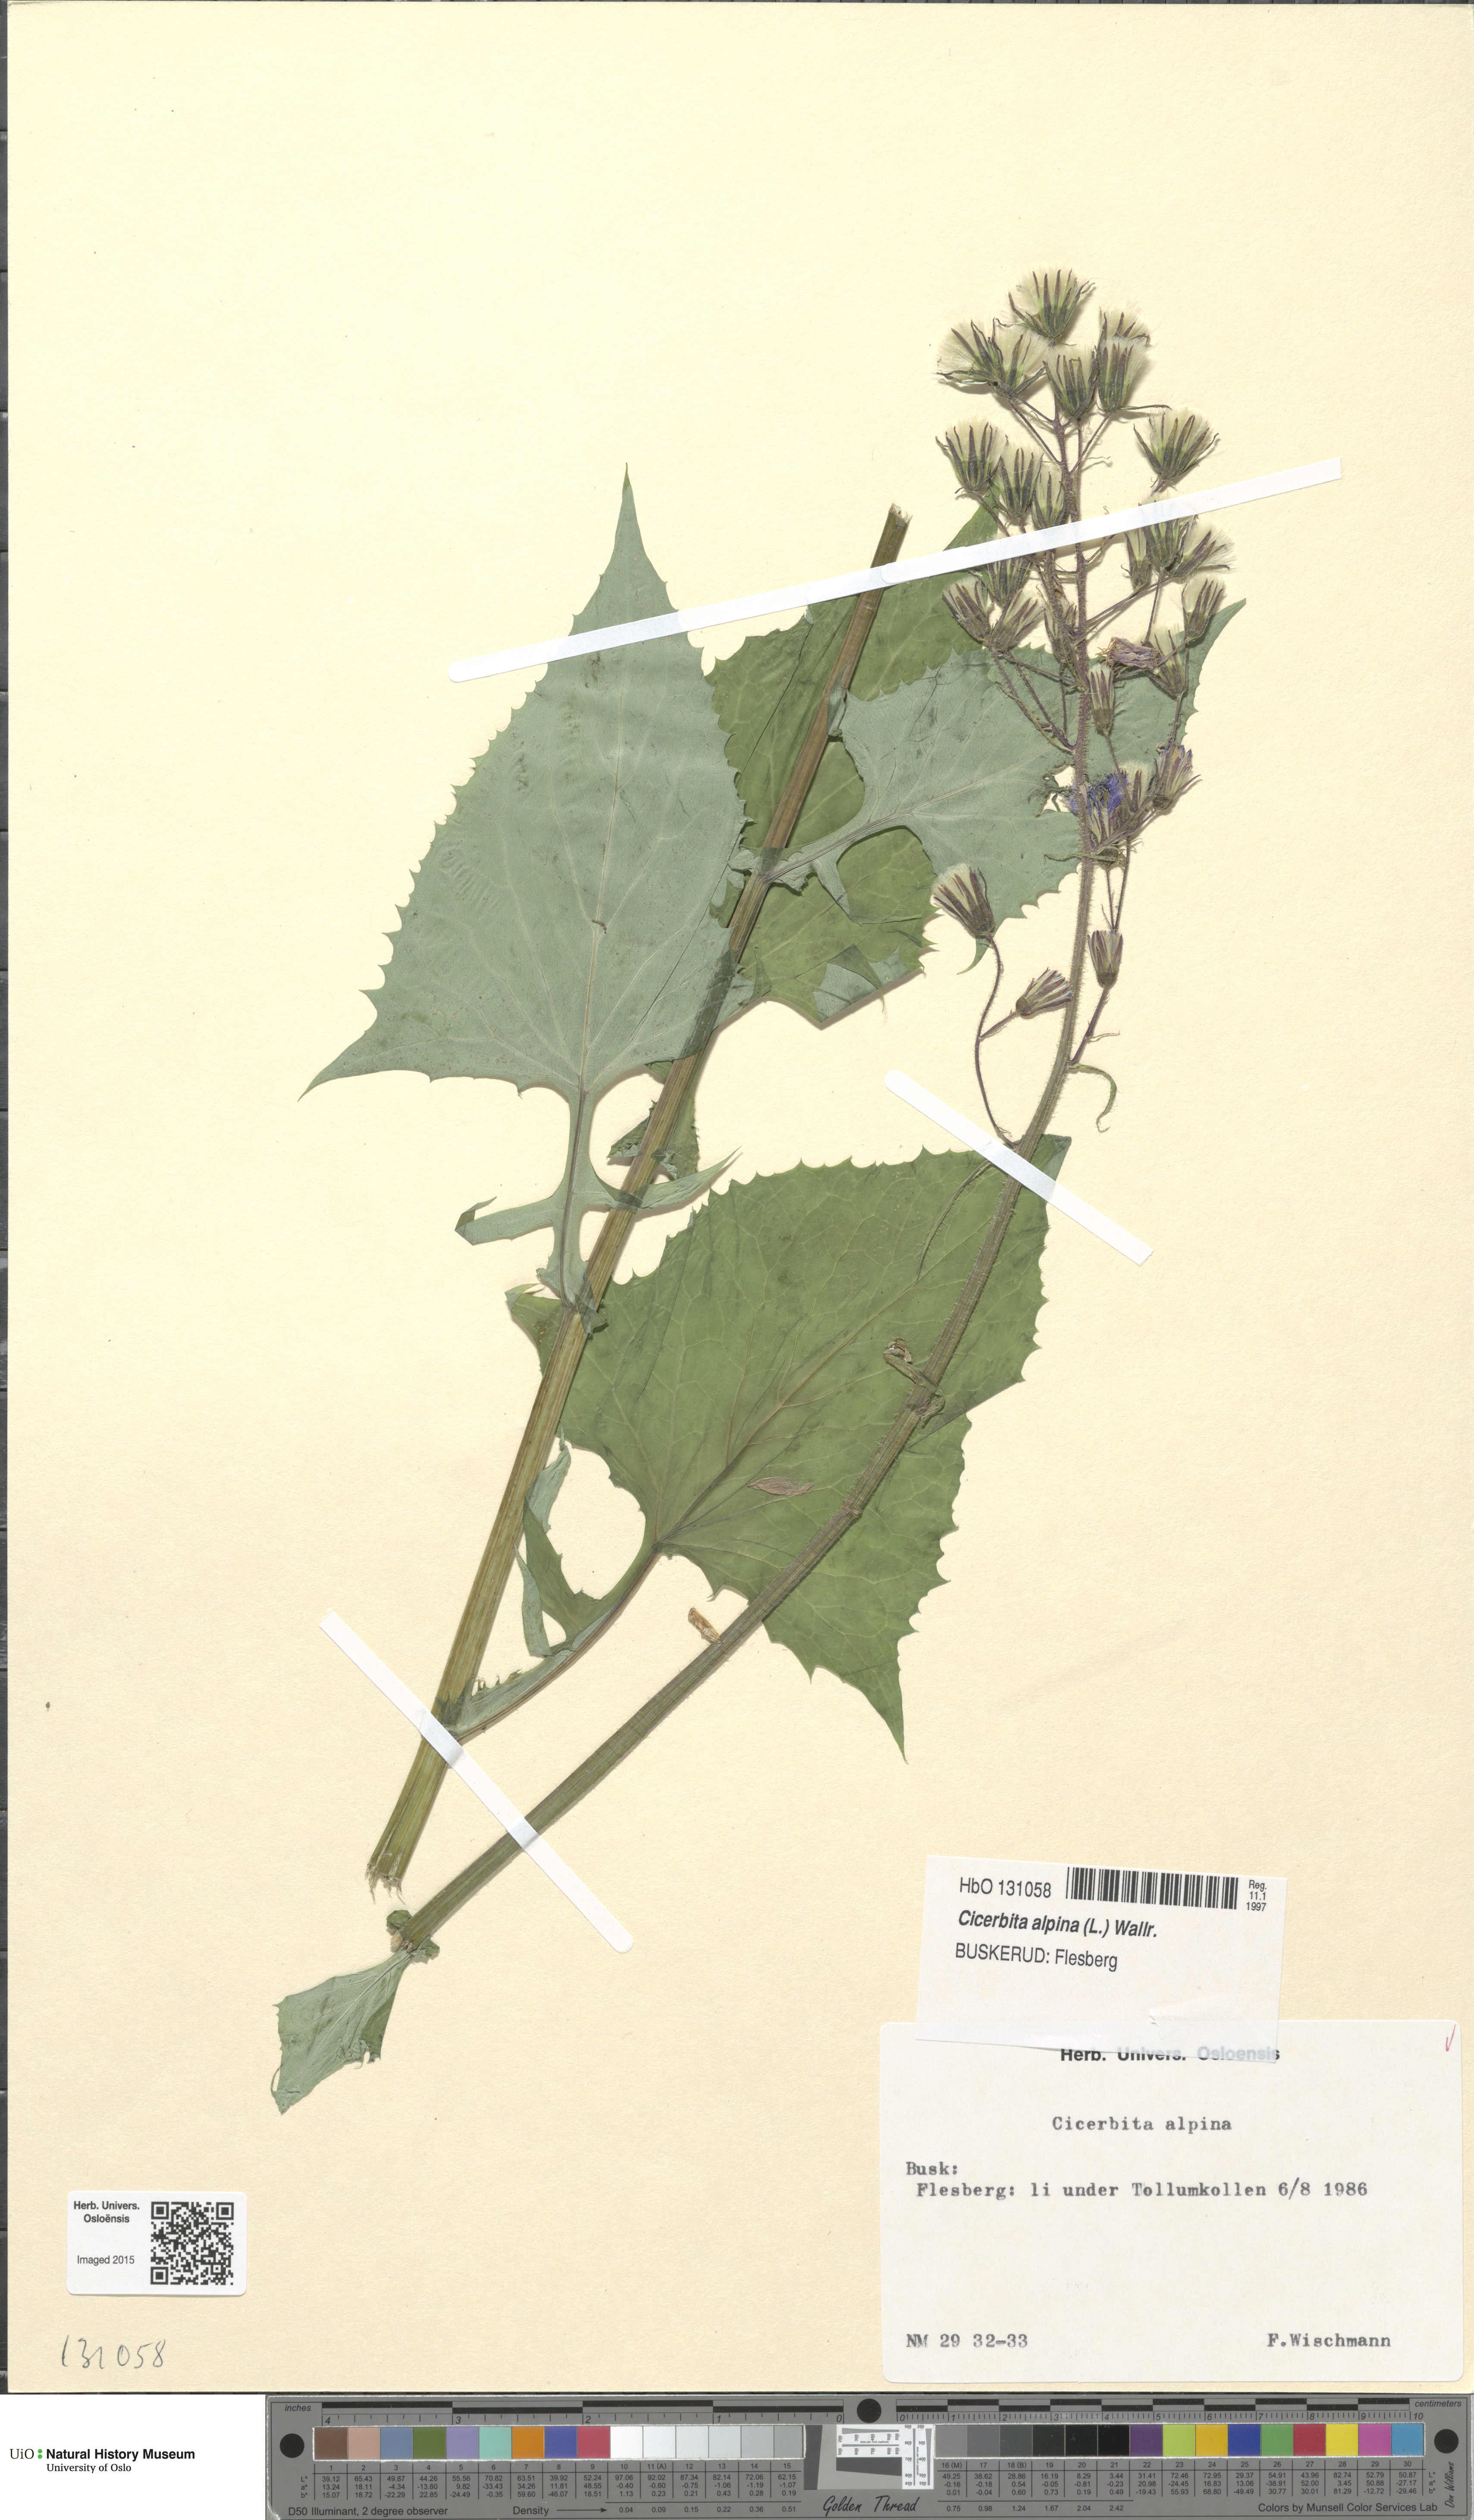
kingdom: Plantae
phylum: Tracheophyta
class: Magnoliopsida
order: Asterales
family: Asteraceae
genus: Cicerbita
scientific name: Cicerbita alpina
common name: Alpine blue-sow-thistle
